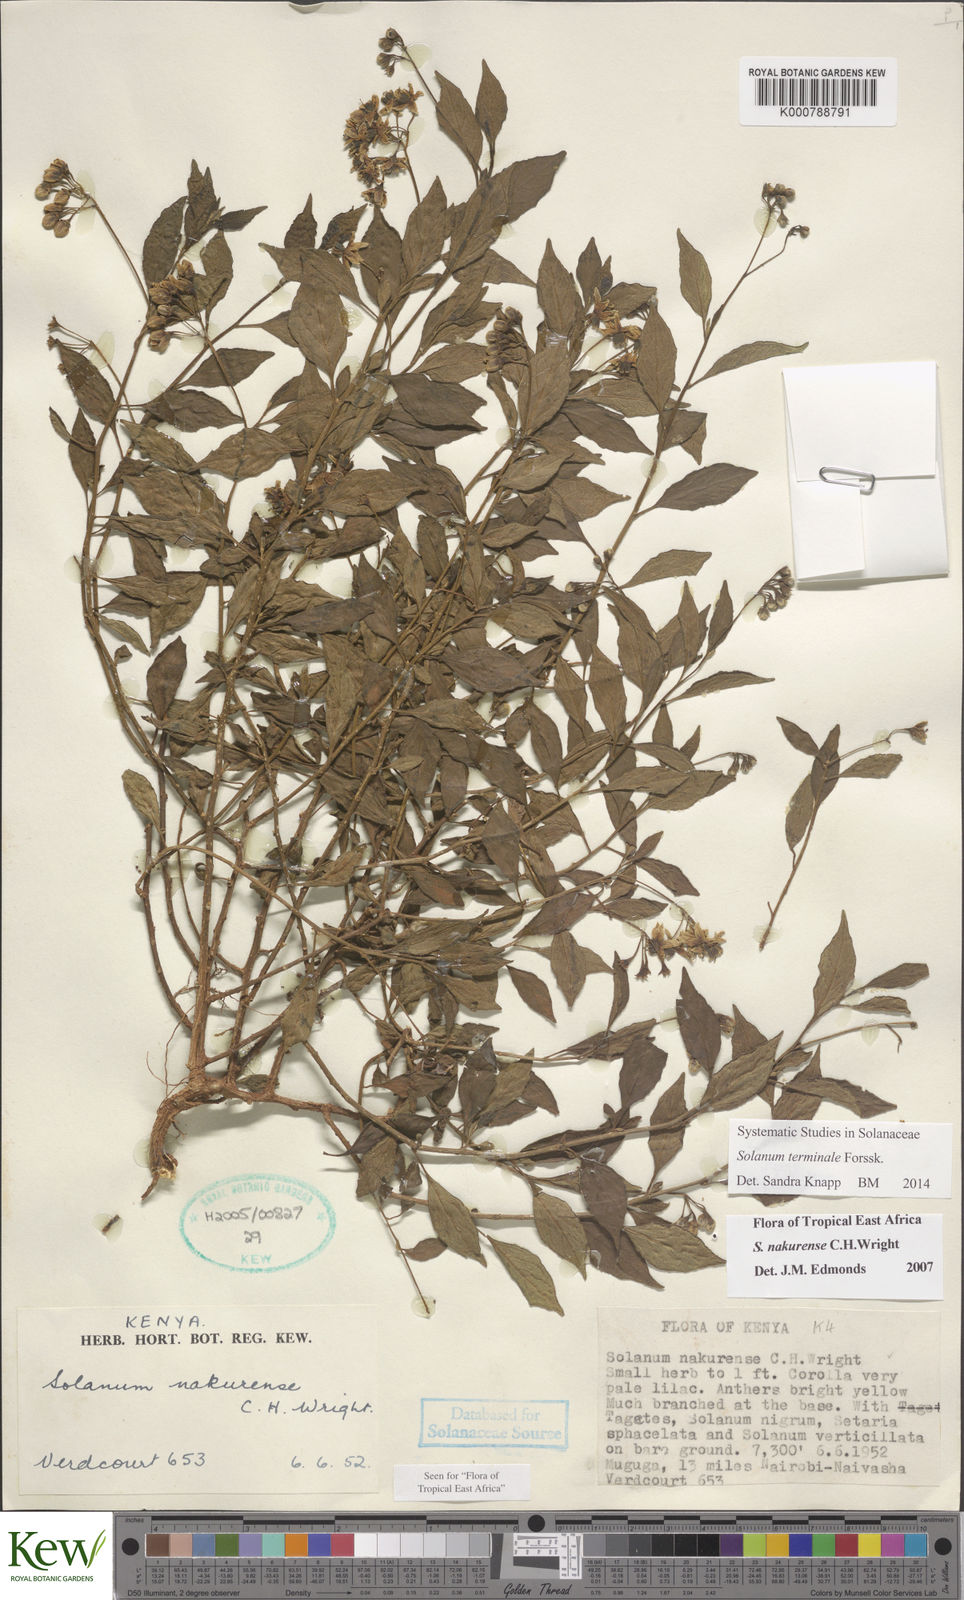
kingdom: Plantae
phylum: Tracheophyta
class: Magnoliopsida
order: Solanales
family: Solanaceae
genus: Solanum
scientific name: Solanum terminale
